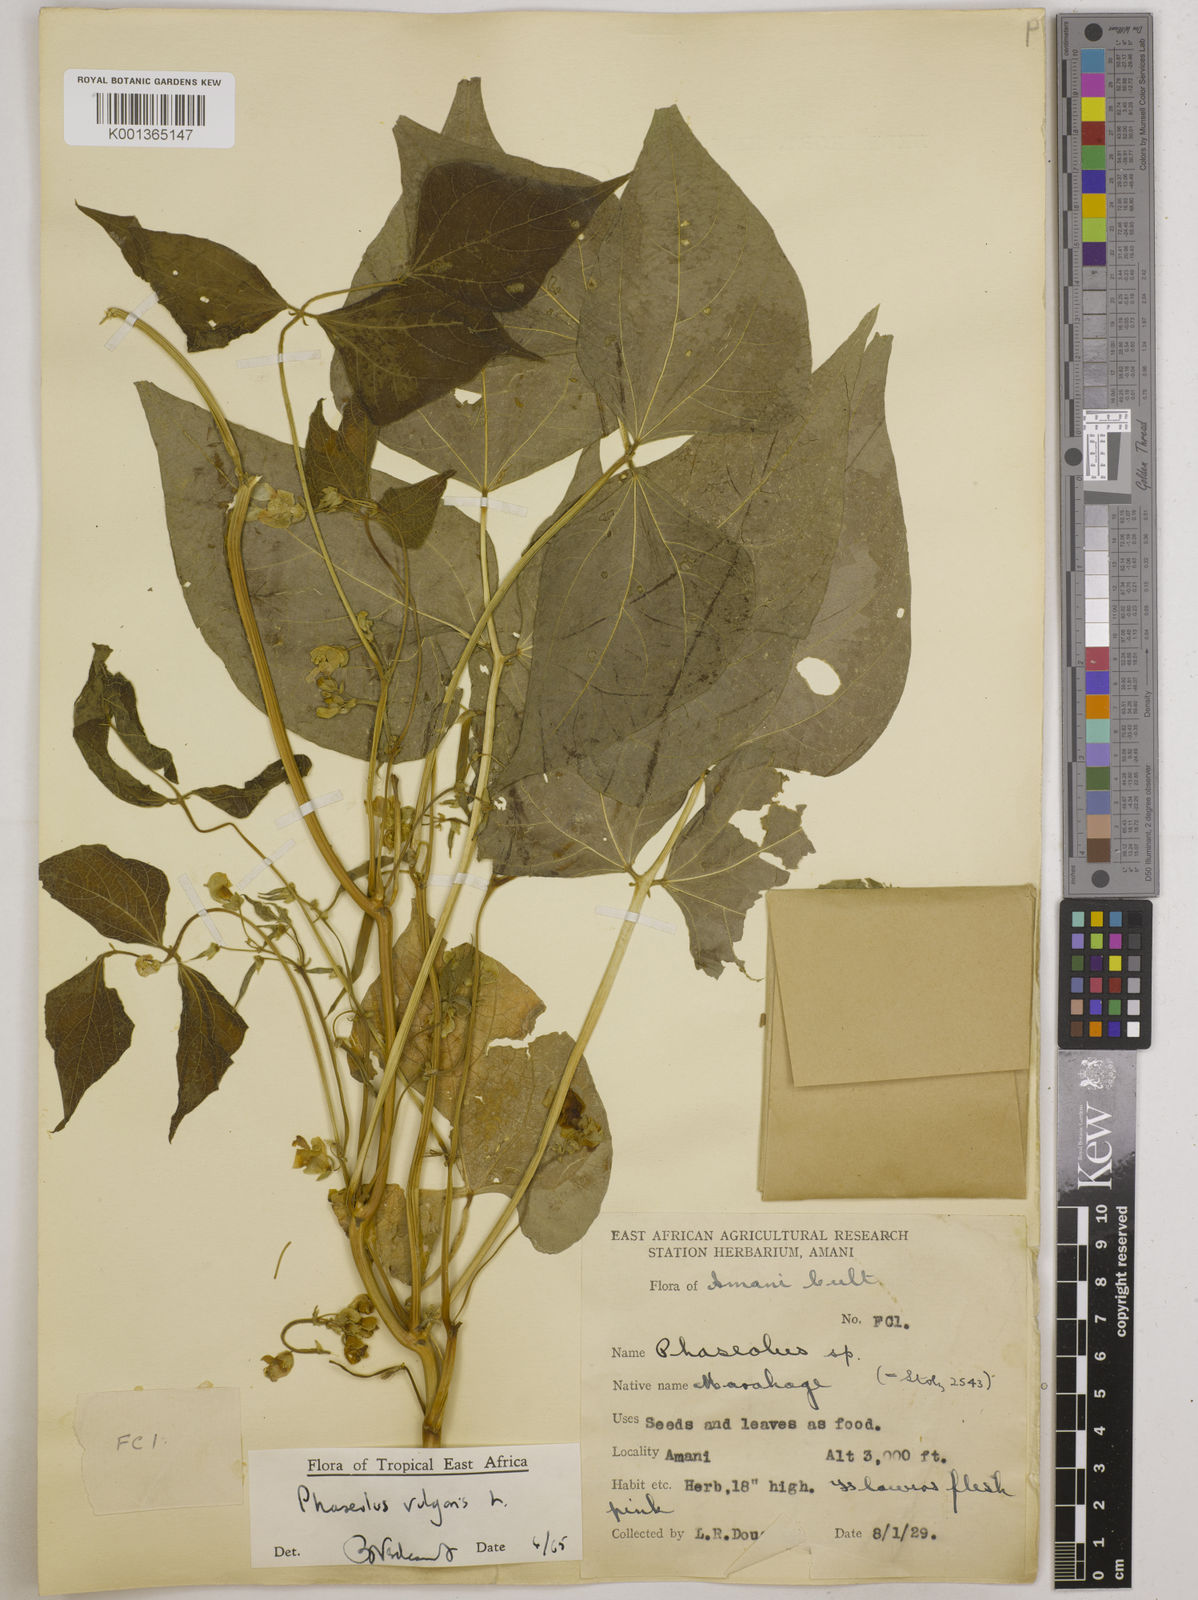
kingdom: Plantae
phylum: Tracheophyta
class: Magnoliopsida
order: Fabales
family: Fabaceae
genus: Phaseolus
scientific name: Phaseolus vulgaris
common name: Bean
